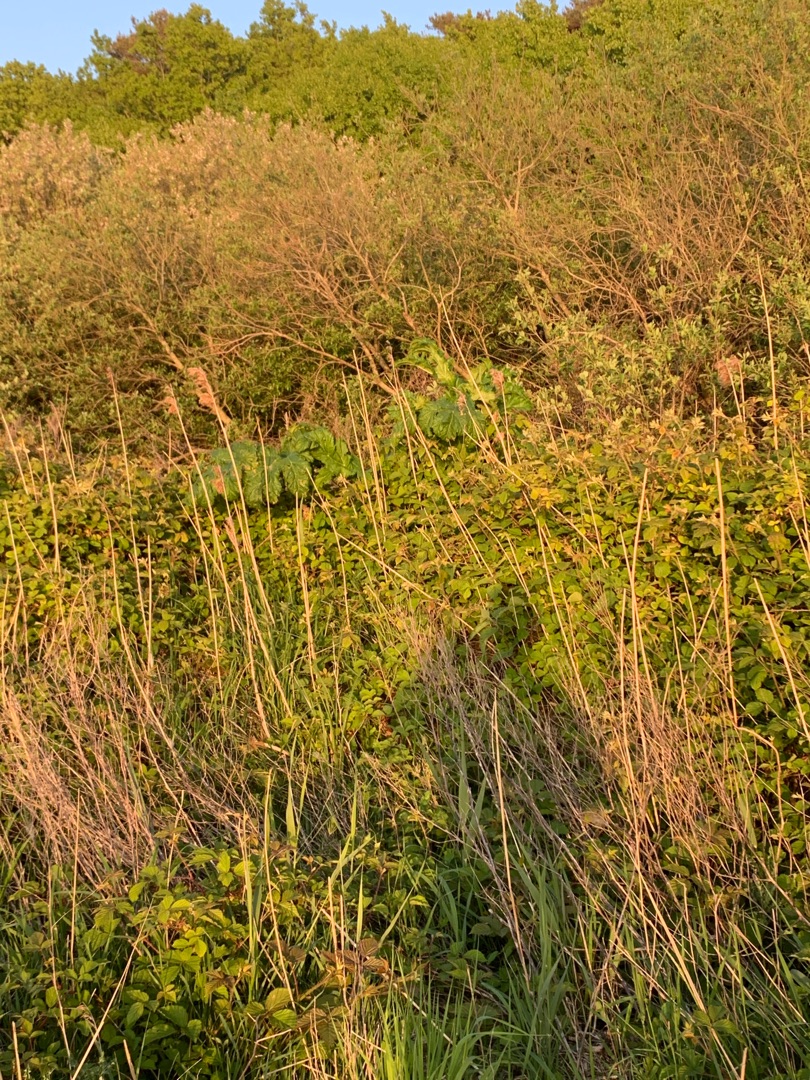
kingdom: Plantae
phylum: Tracheophyta
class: Magnoliopsida
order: Apiales
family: Apiaceae
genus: Heracleum
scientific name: Heracleum mantegazzianum
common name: Kæmpe-bjørneklo
